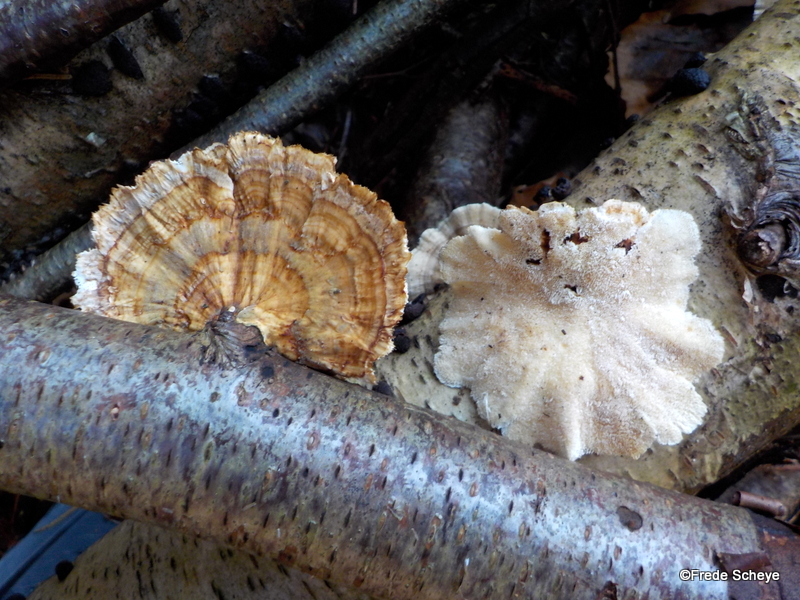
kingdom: Fungi
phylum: Basidiomycota
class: Agaricomycetes
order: Polyporales
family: Polyporaceae
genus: Trametes
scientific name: Trametes versicolor
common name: broget læderporesvamp
